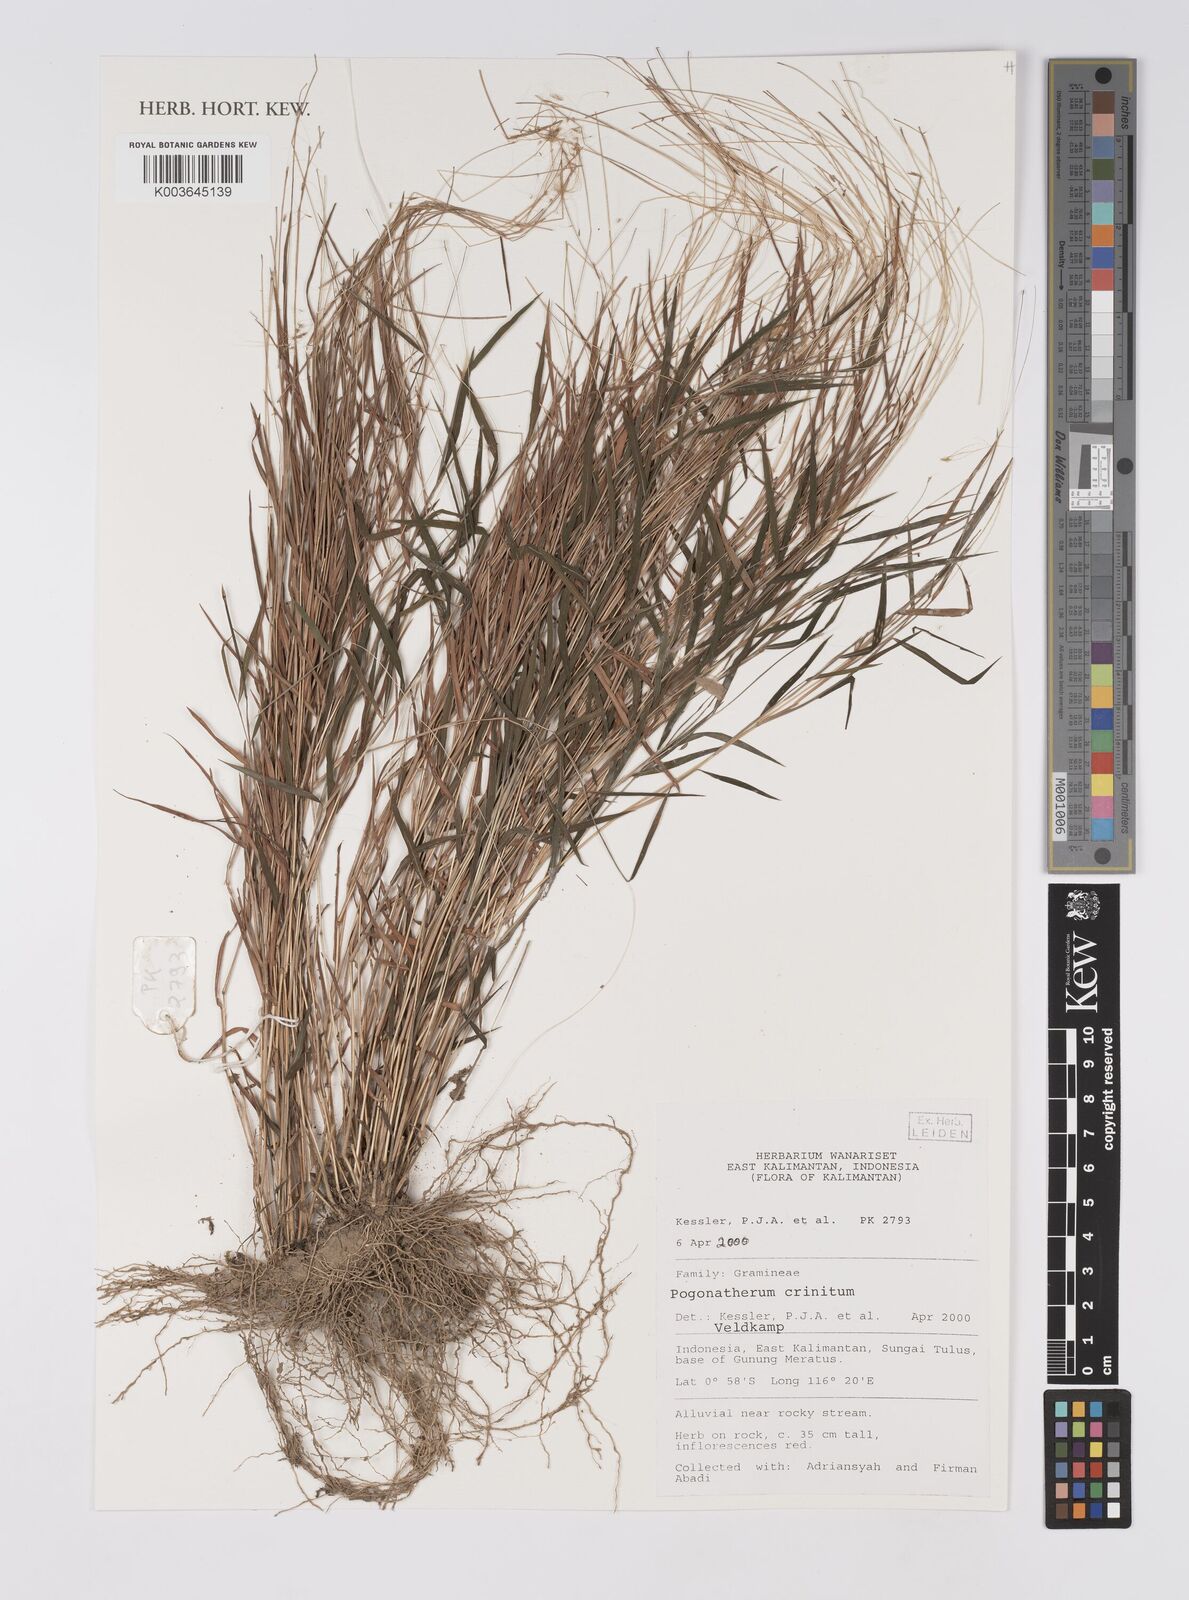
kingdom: Plantae
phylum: Tracheophyta
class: Liliopsida
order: Poales
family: Poaceae
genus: Pogonatherum
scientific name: Pogonatherum crinitum
